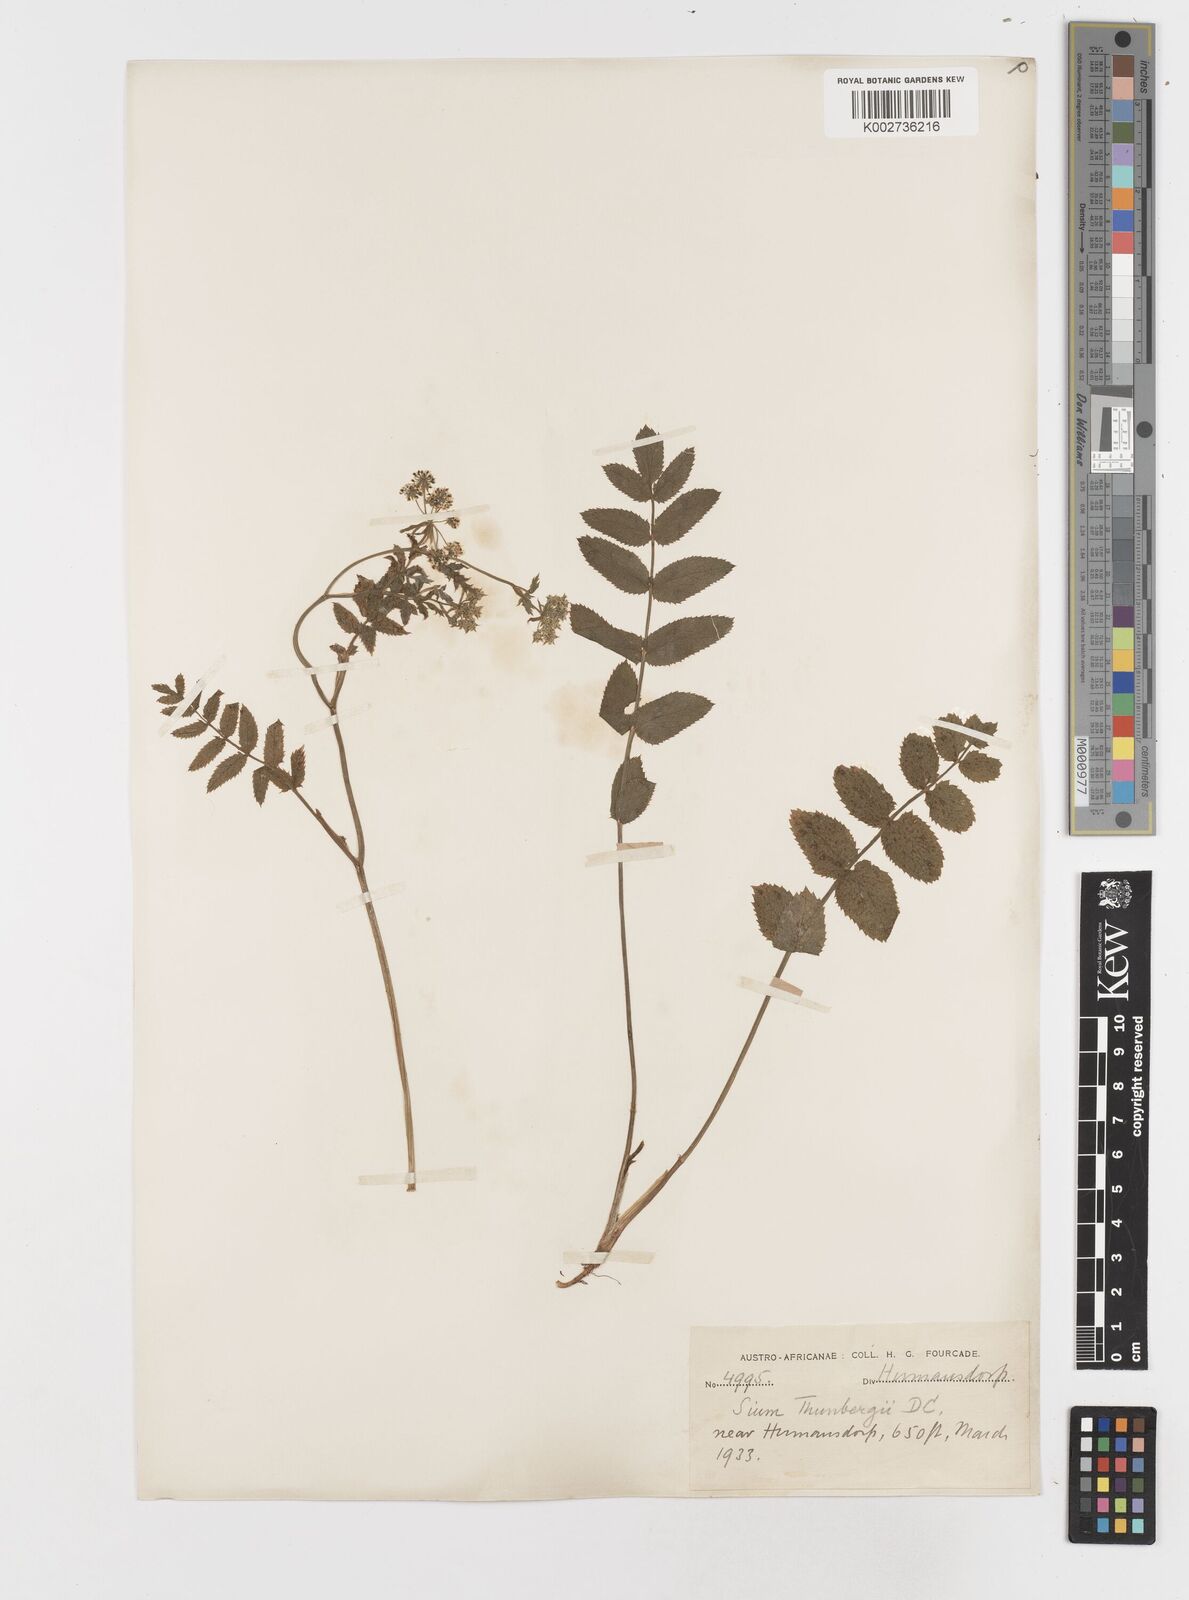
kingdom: Plantae
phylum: Tracheophyta
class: Magnoliopsida
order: Apiales
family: Apiaceae
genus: Berula
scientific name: Berula erecta
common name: Lesser water-parsnip
